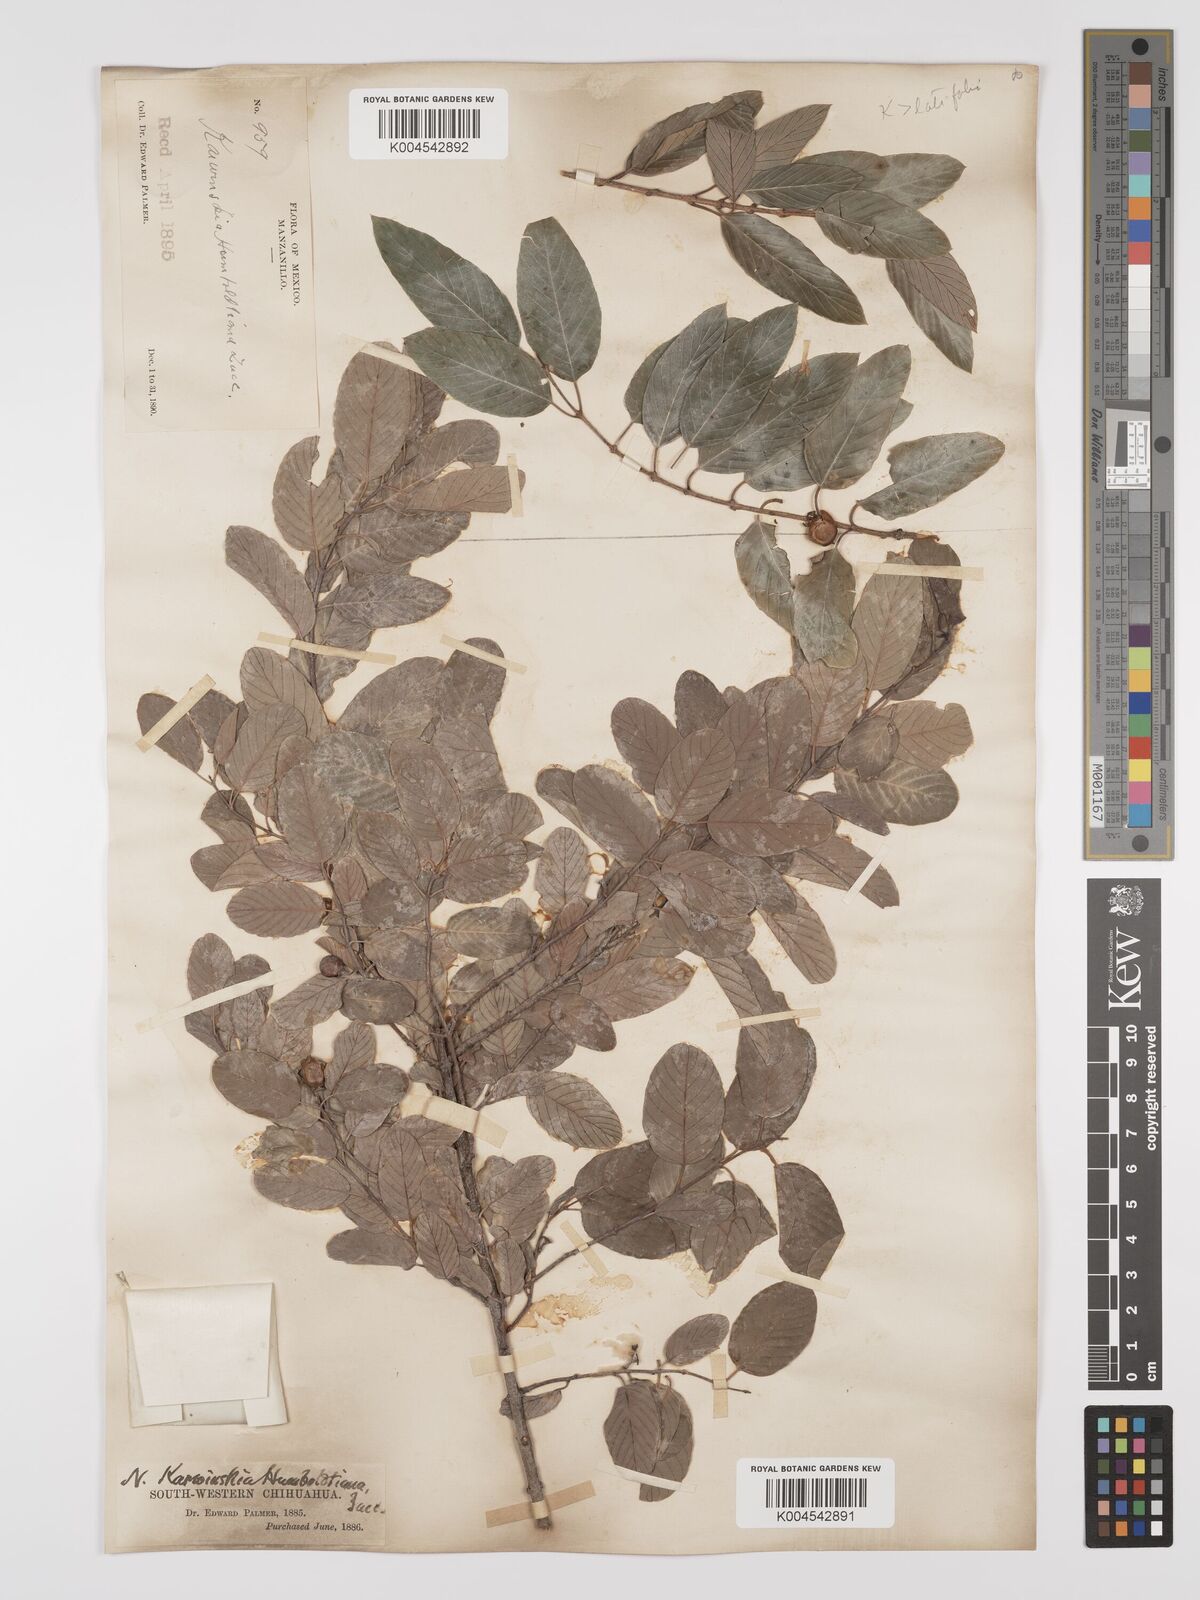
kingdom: Plantae
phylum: Tracheophyta
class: Magnoliopsida
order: Rosales
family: Rhamnaceae
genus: Karwinskia
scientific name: Karwinskia humboldtiana
